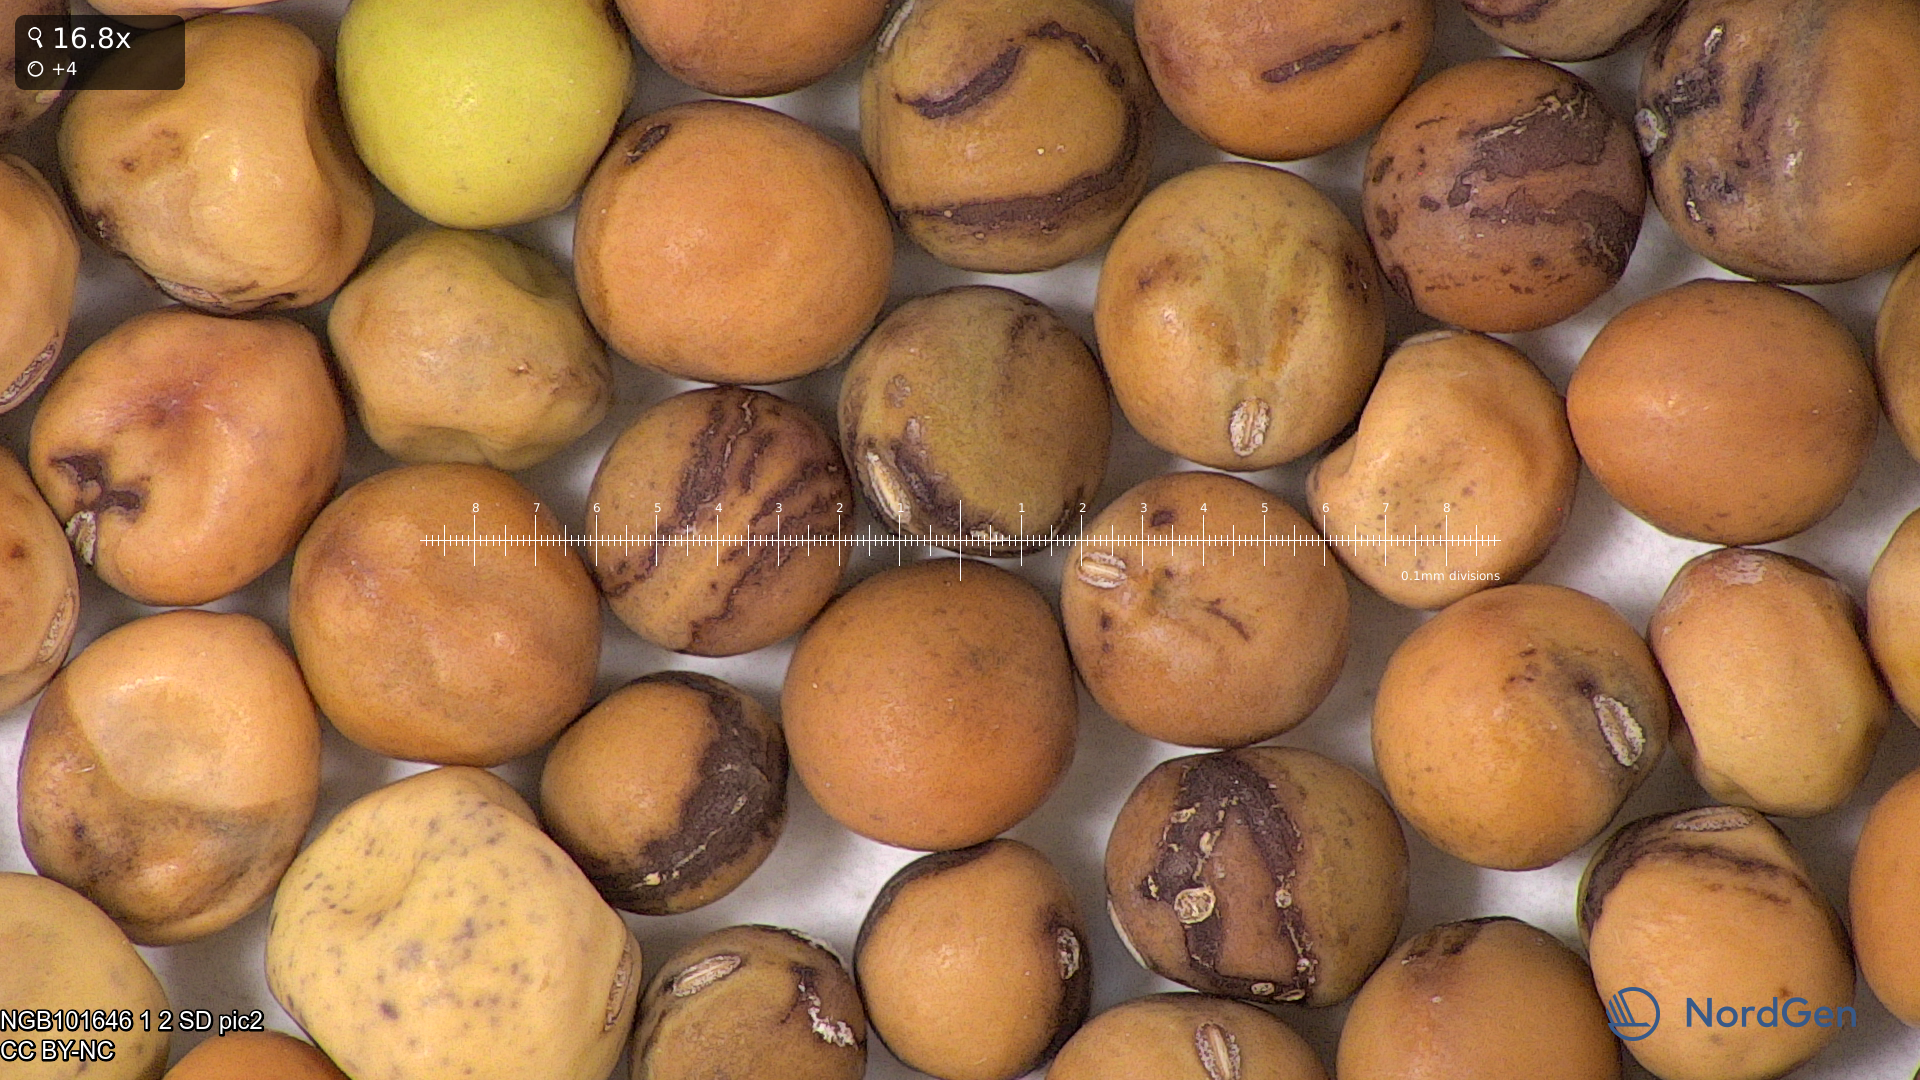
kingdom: Plantae
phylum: Tracheophyta
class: Magnoliopsida
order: Fabales
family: Fabaceae
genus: Lathyrus
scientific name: Lathyrus oleraceus
